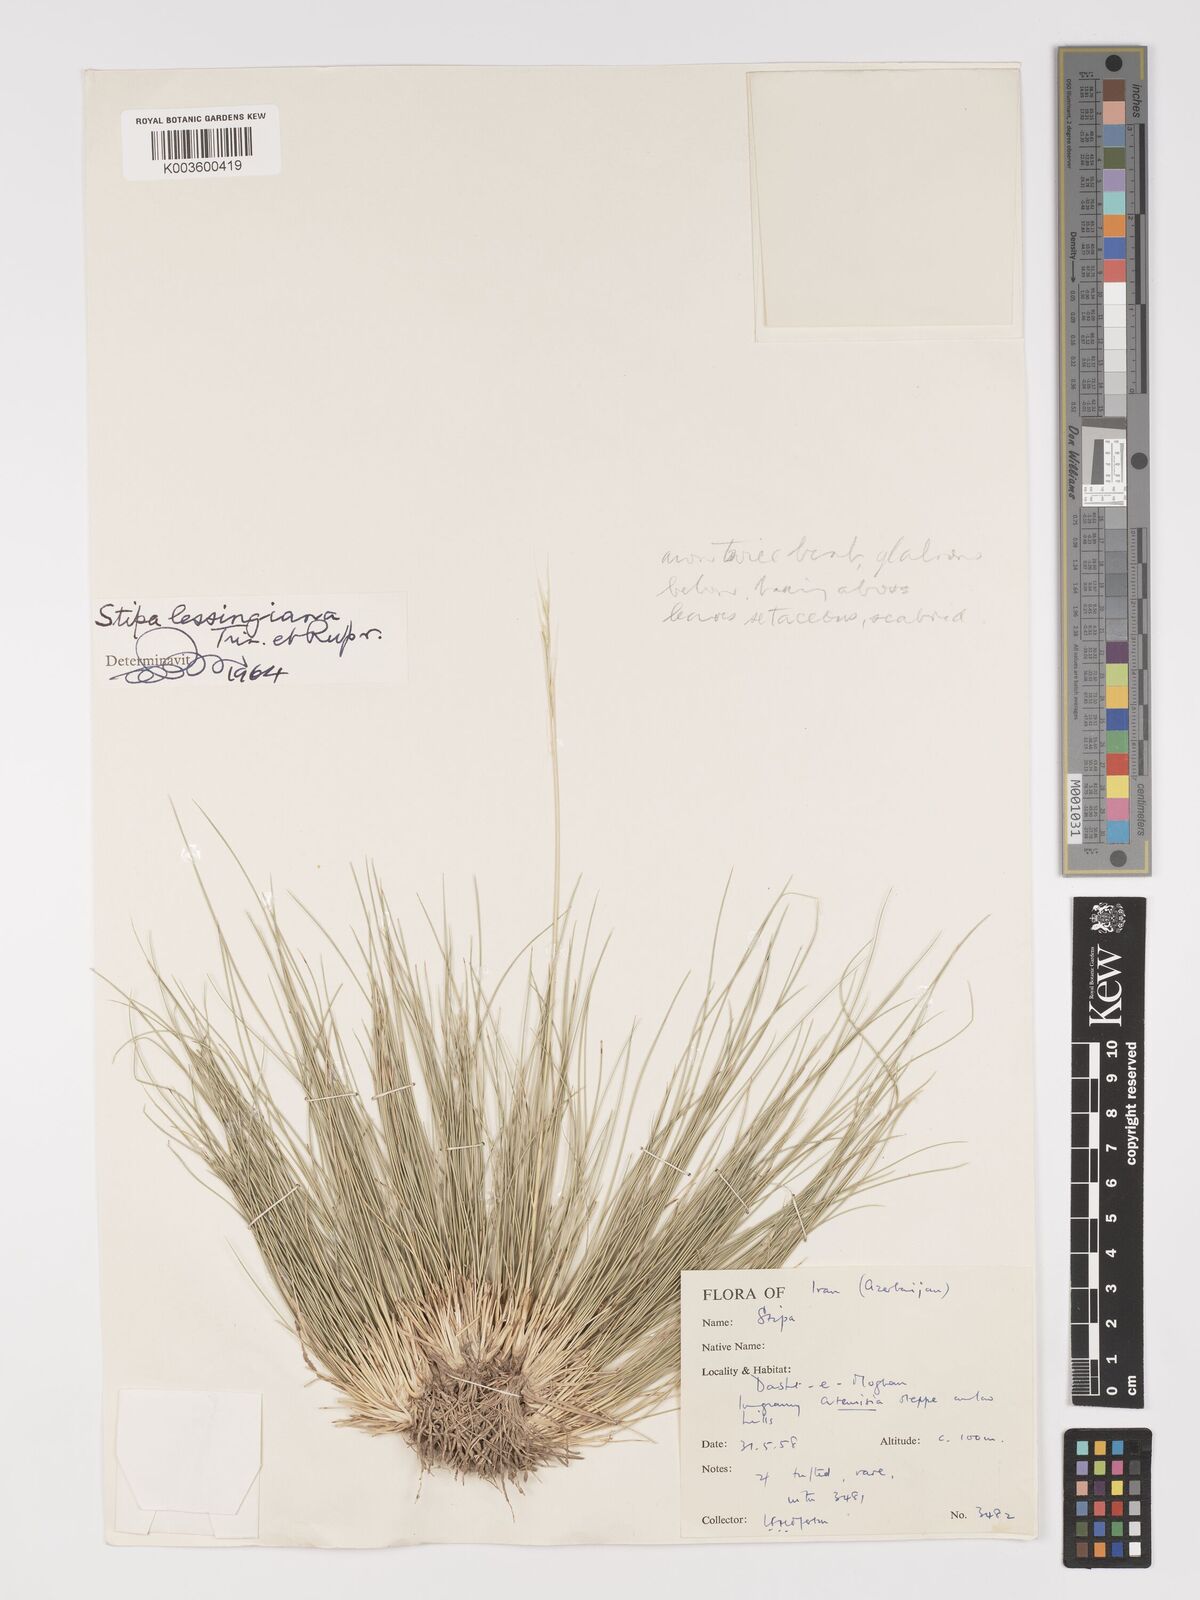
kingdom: Plantae
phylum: Tracheophyta
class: Liliopsida
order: Poales
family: Poaceae
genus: Stipa
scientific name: Stipa lessingiana
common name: Needle grass
